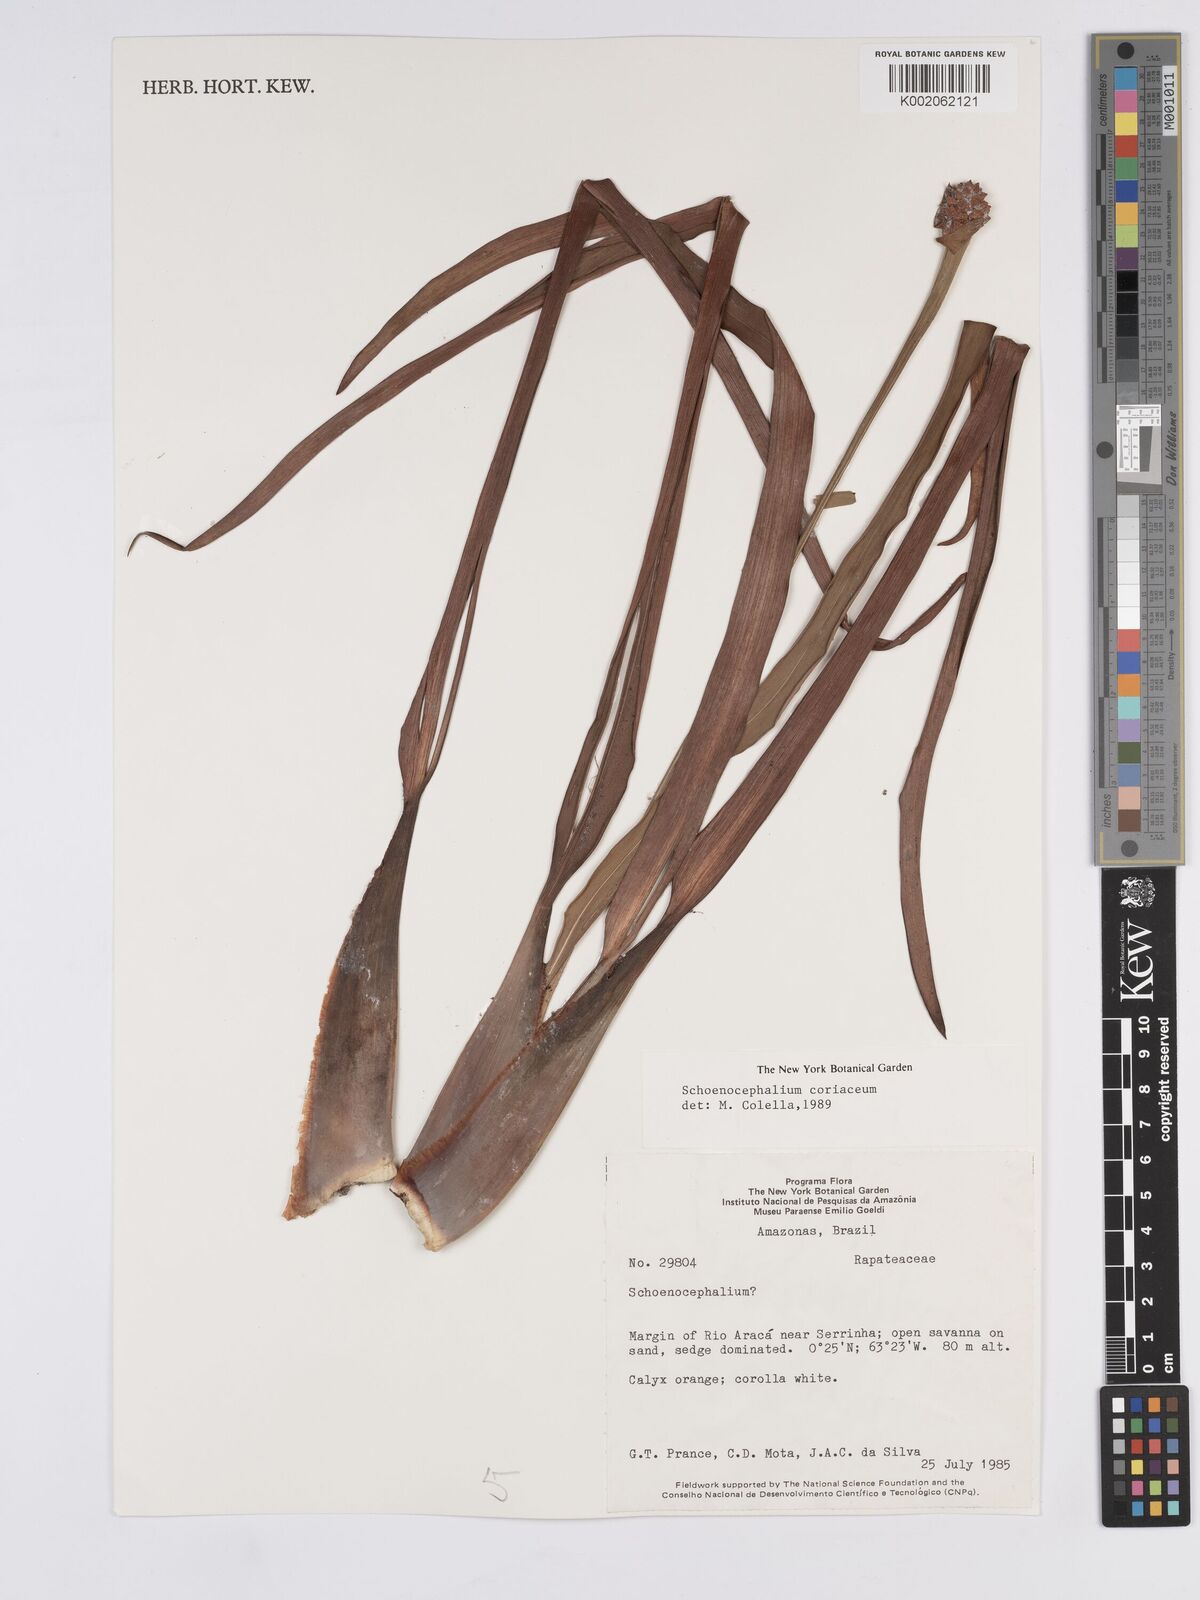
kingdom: Plantae
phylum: Tracheophyta
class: Liliopsida
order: Poales
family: Rapateaceae
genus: Schoenocephalium
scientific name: Schoenocephalium cucullatum
